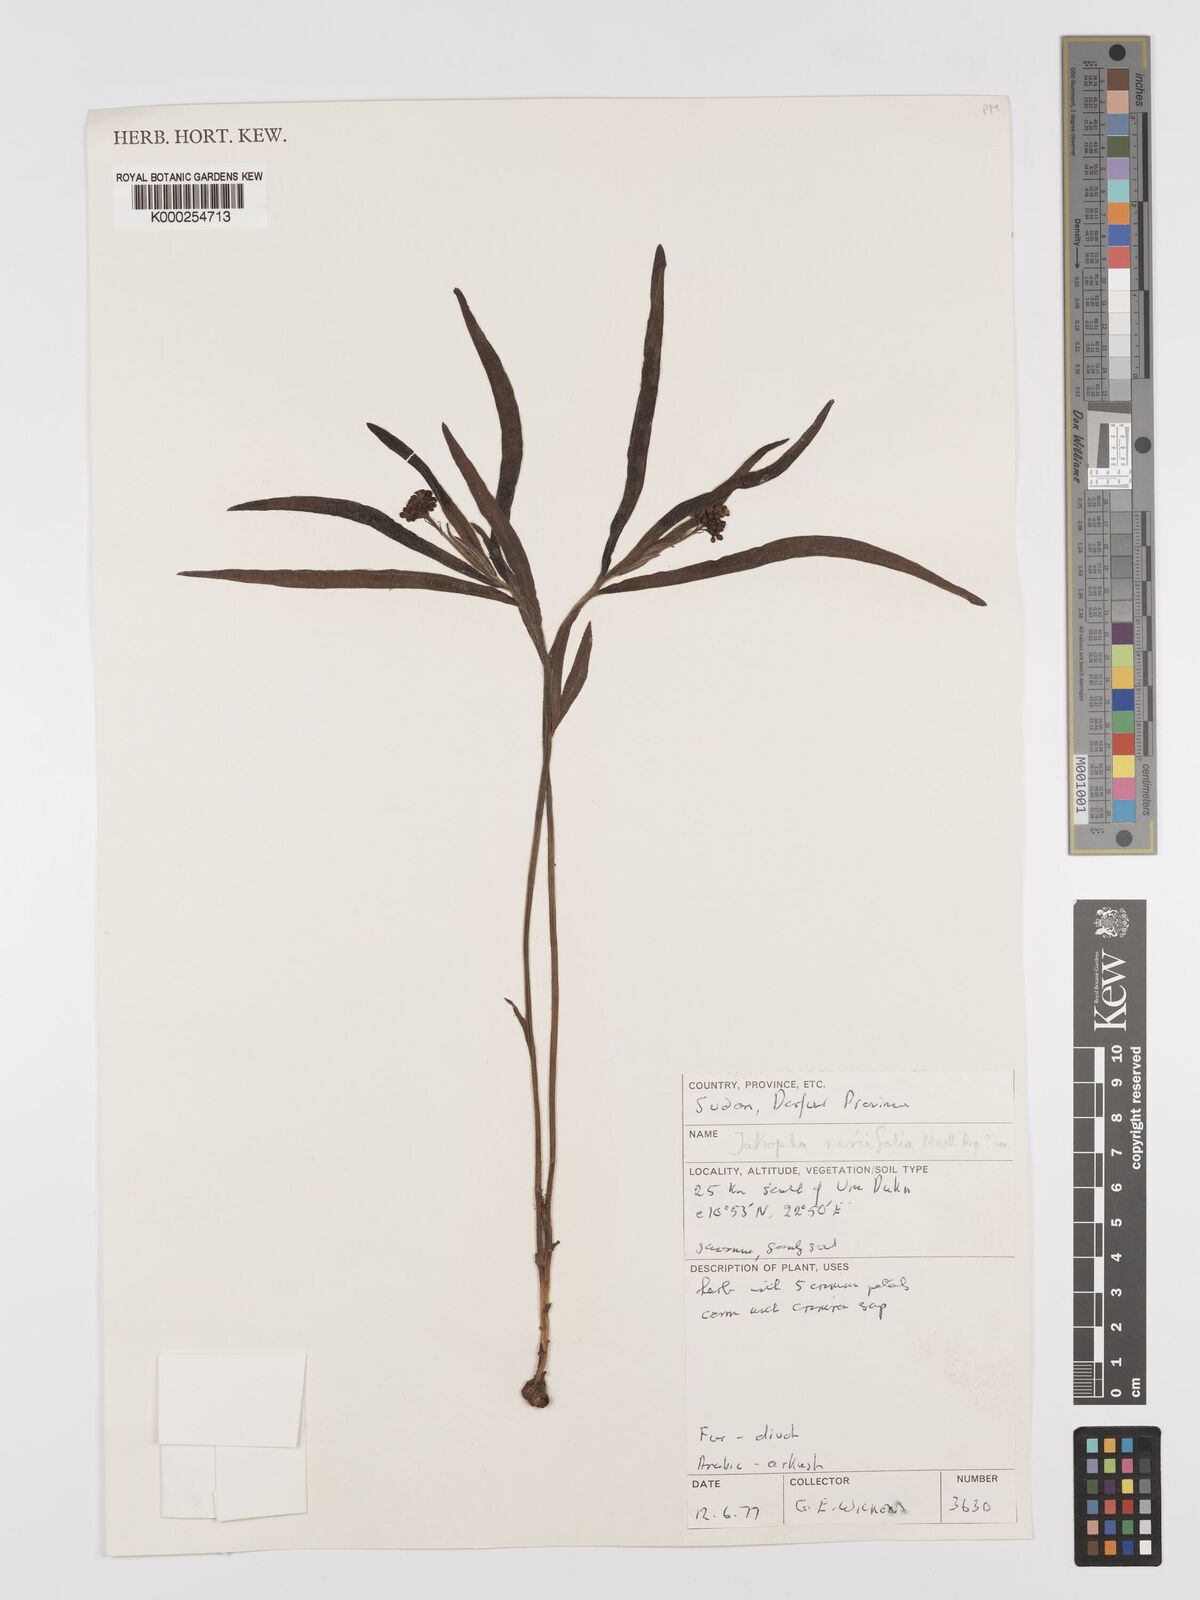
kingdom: Plantae
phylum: Tracheophyta
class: Magnoliopsida
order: Malpighiales
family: Euphorbiaceae
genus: Jatropha
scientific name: Jatropha
